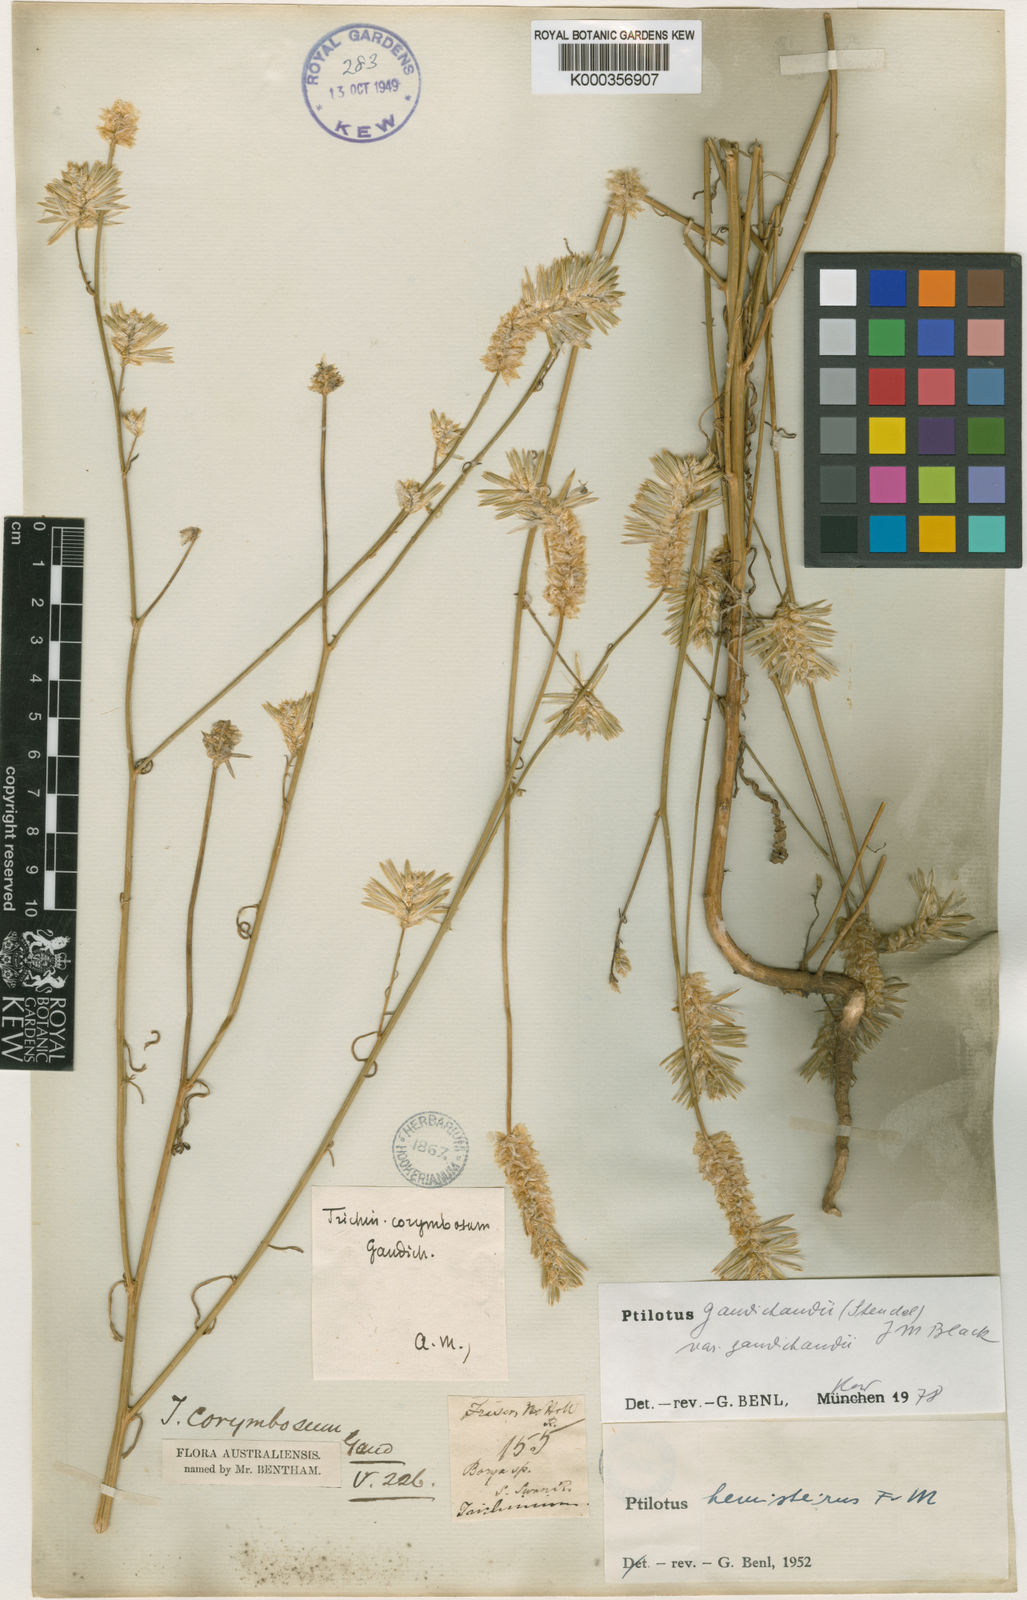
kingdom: Plantae
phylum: Tracheophyta
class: Magnoliopsida
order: Caryophyllales
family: Amaranthaceae
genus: Ptilotus
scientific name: Ptilotus
